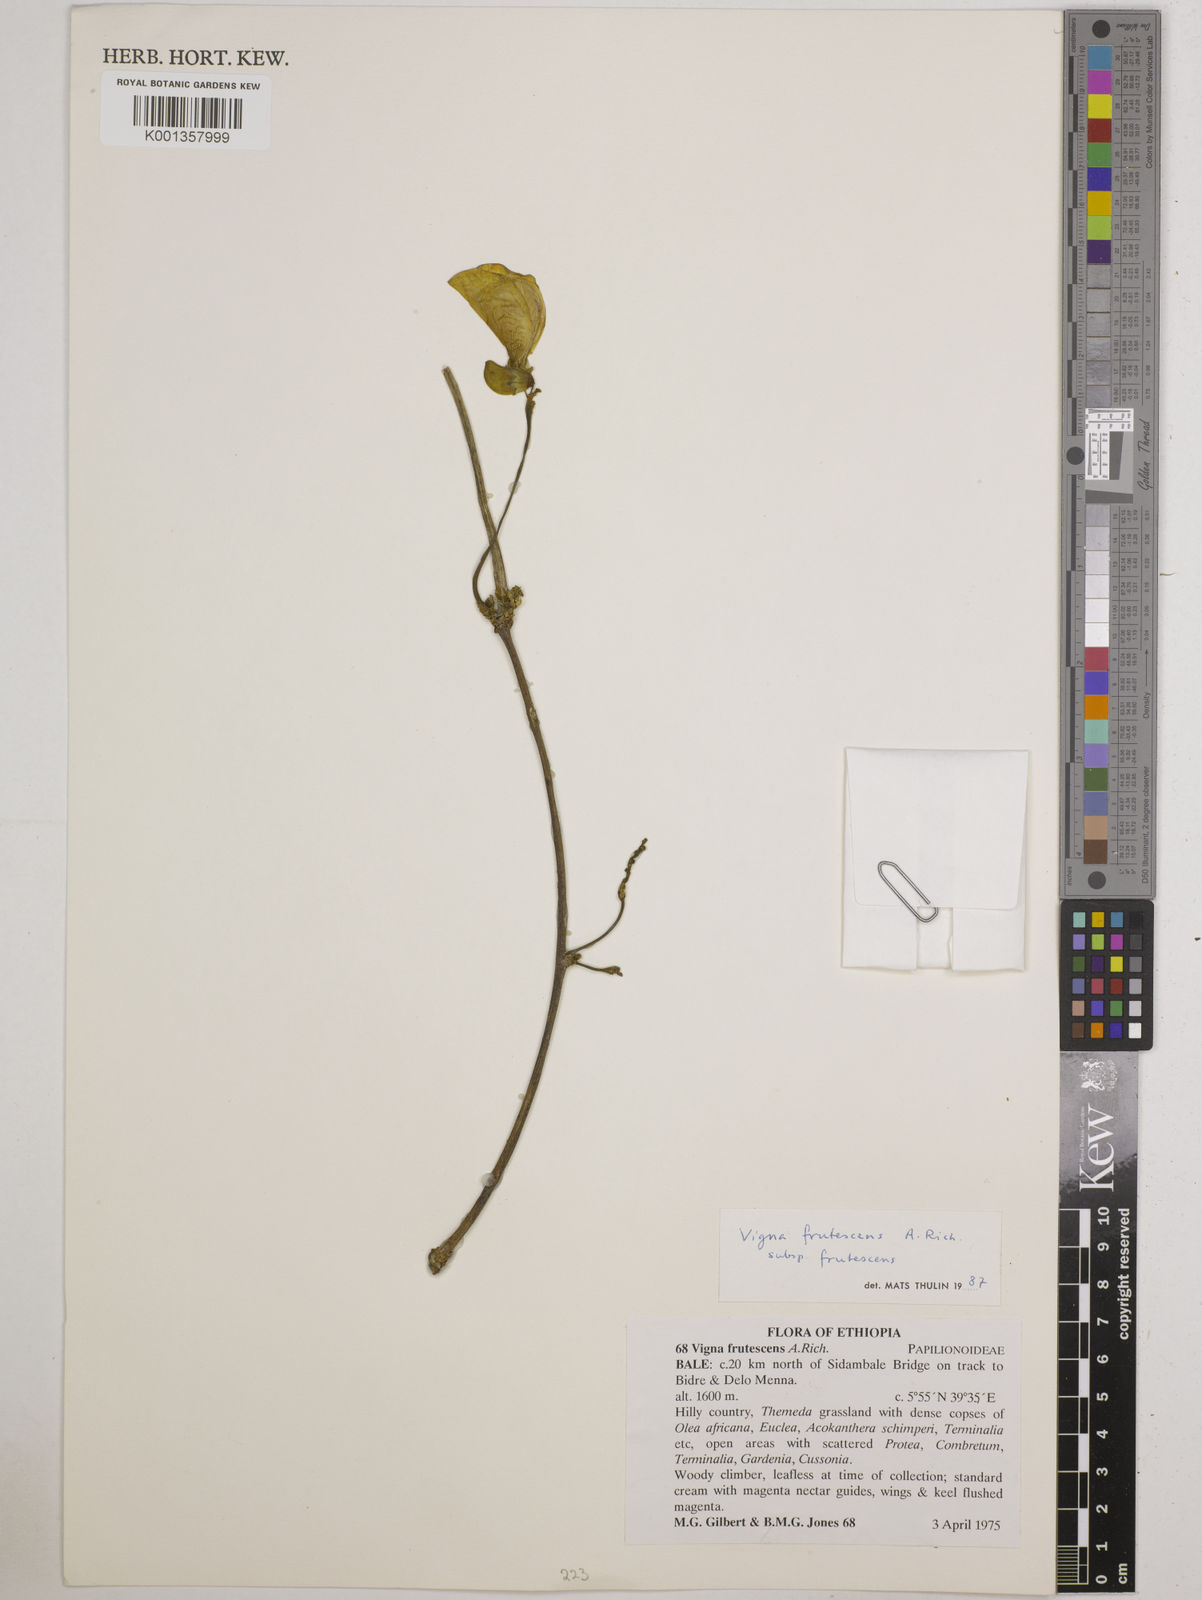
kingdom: Plantae
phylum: Tracheophyta
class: Magnoliopsida
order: Fabales
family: Fabaceae
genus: Vigna
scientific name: Vigna frutescens
